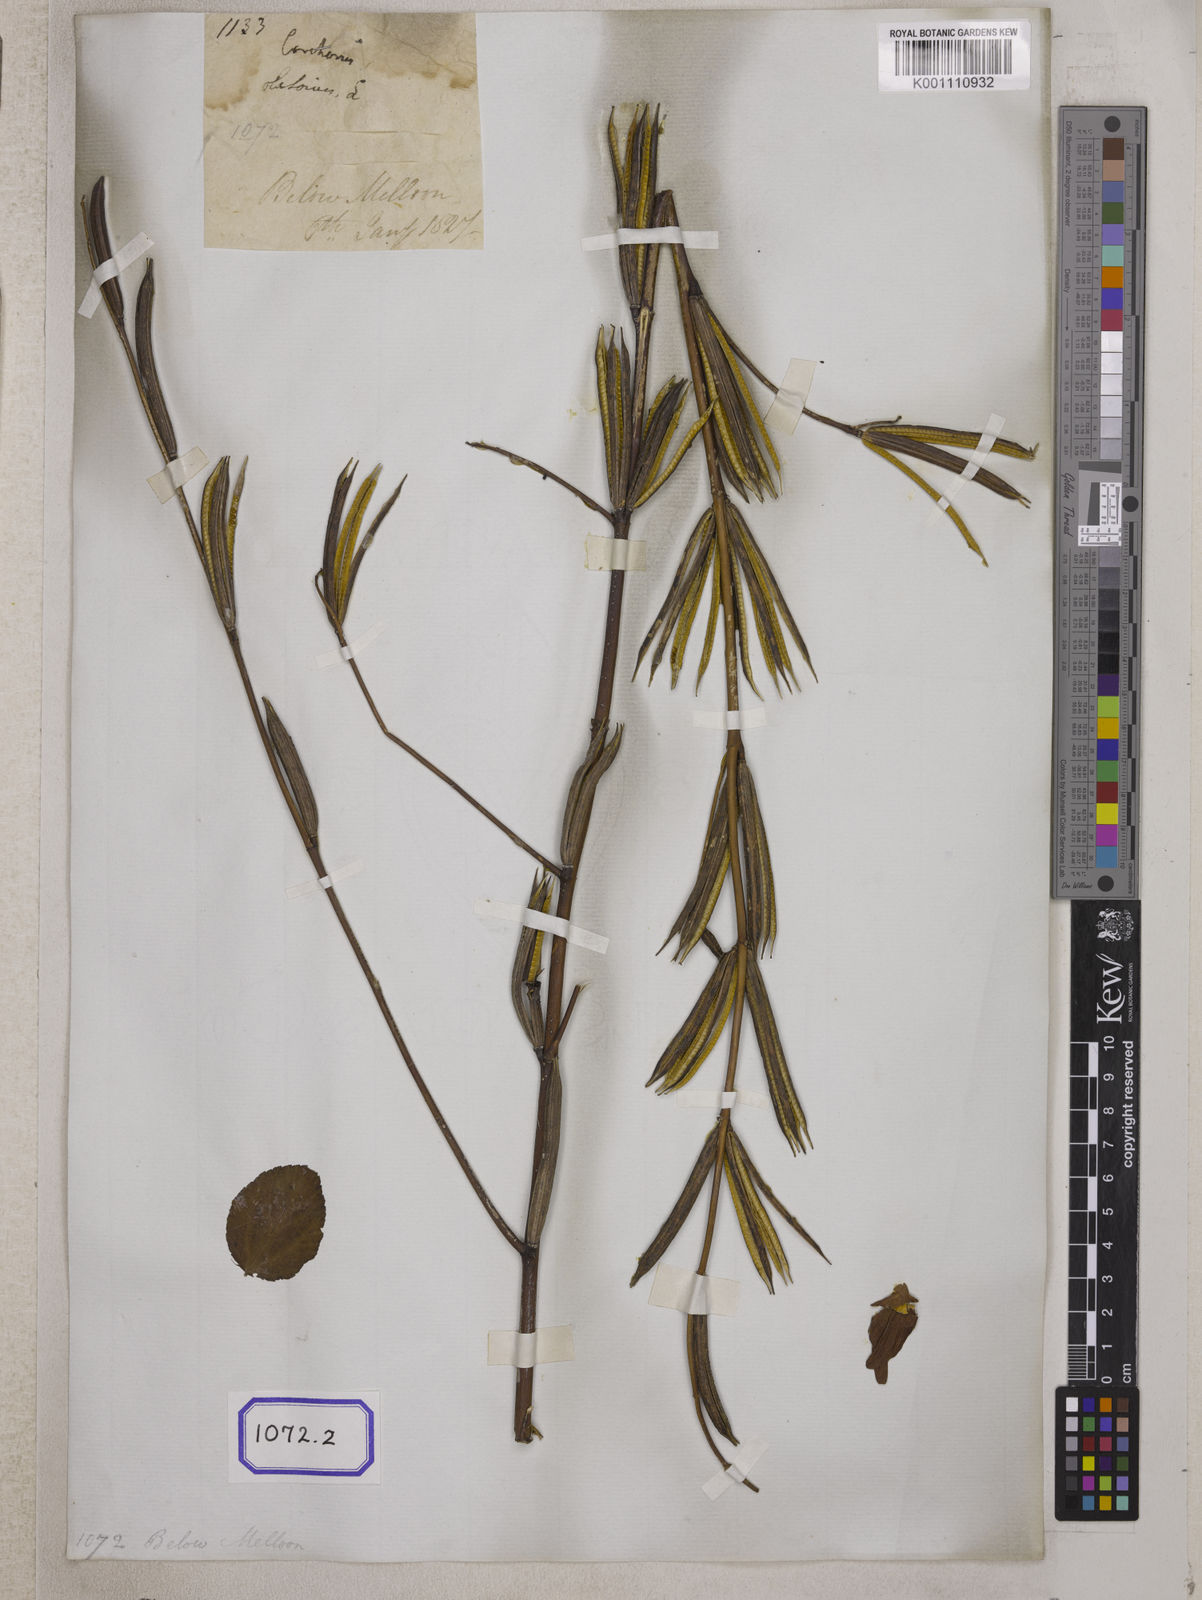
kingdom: Plantae
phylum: Tracheophyta
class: Magnoliopsida
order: Malvales
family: Malvaceae
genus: Corchorus
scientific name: Corchorus olitorius
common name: Tossa jute
